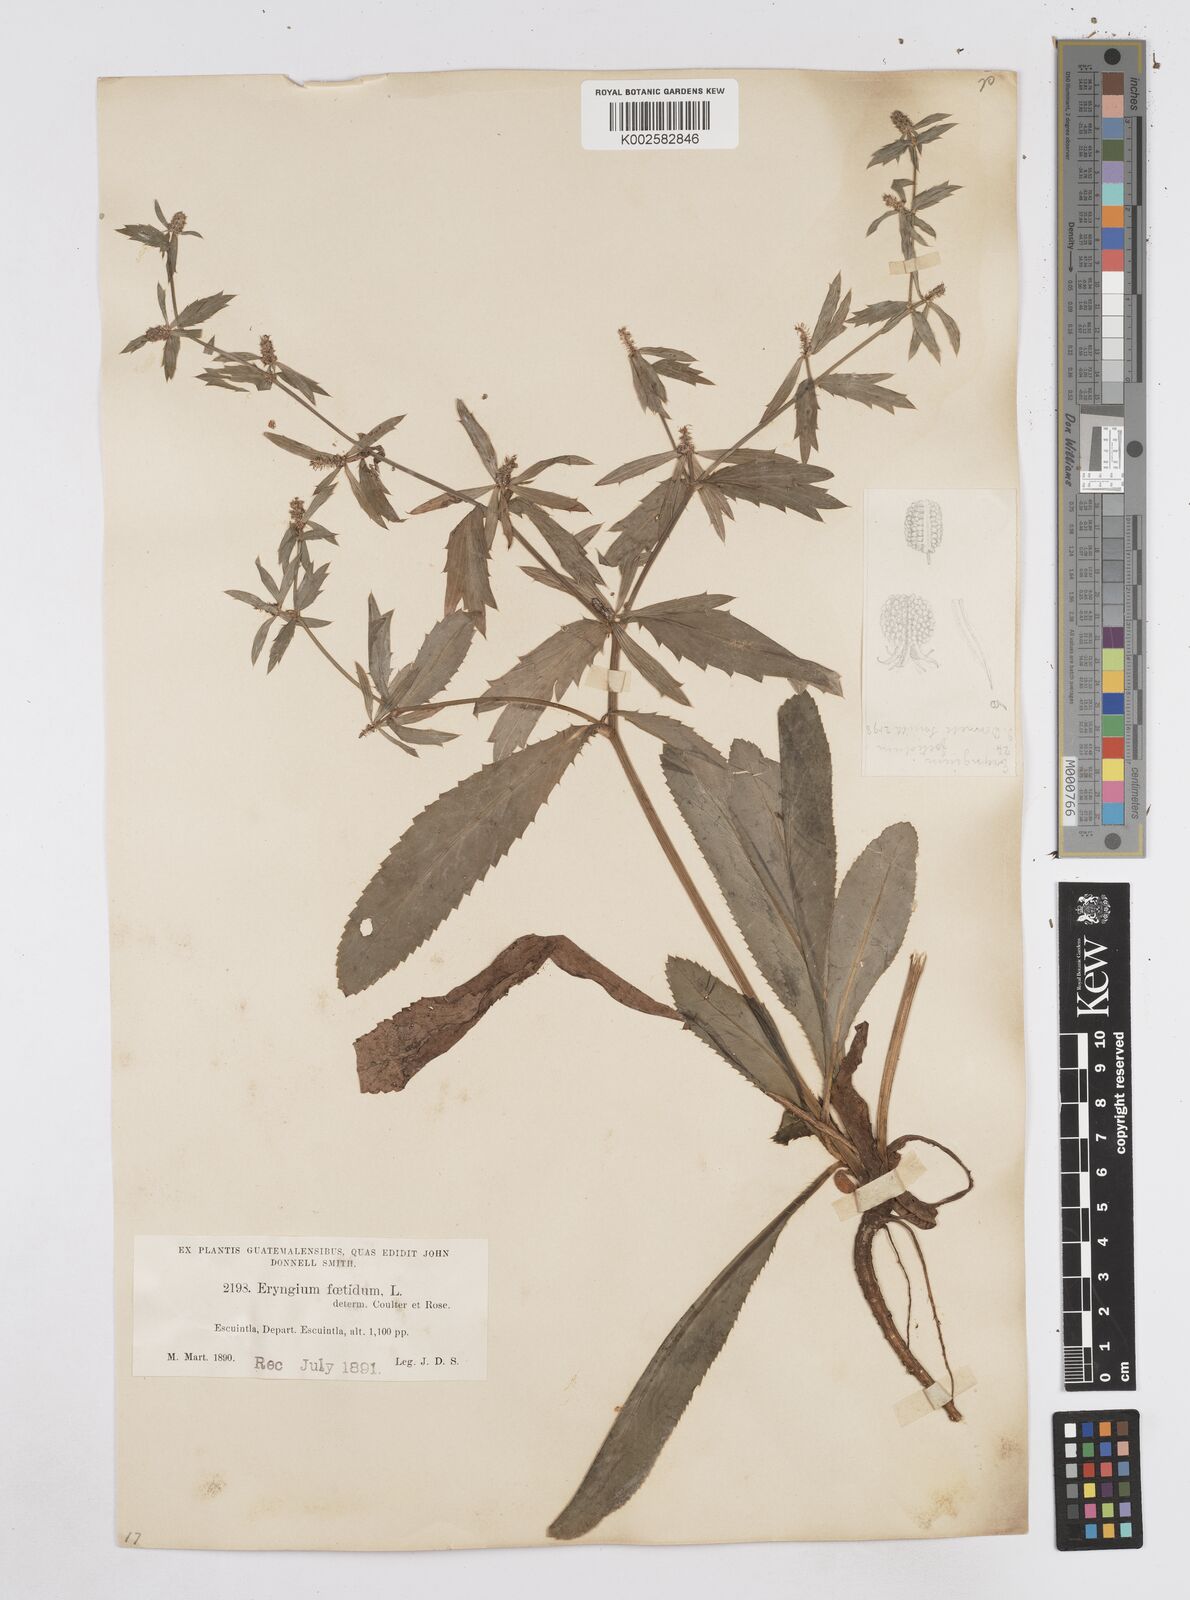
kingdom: Plantae
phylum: Tracheophyta
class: Magnoliopsida
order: Apiales
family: Apiaceae
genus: Eryngium
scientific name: Eryngium foetidum
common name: Fitweed
